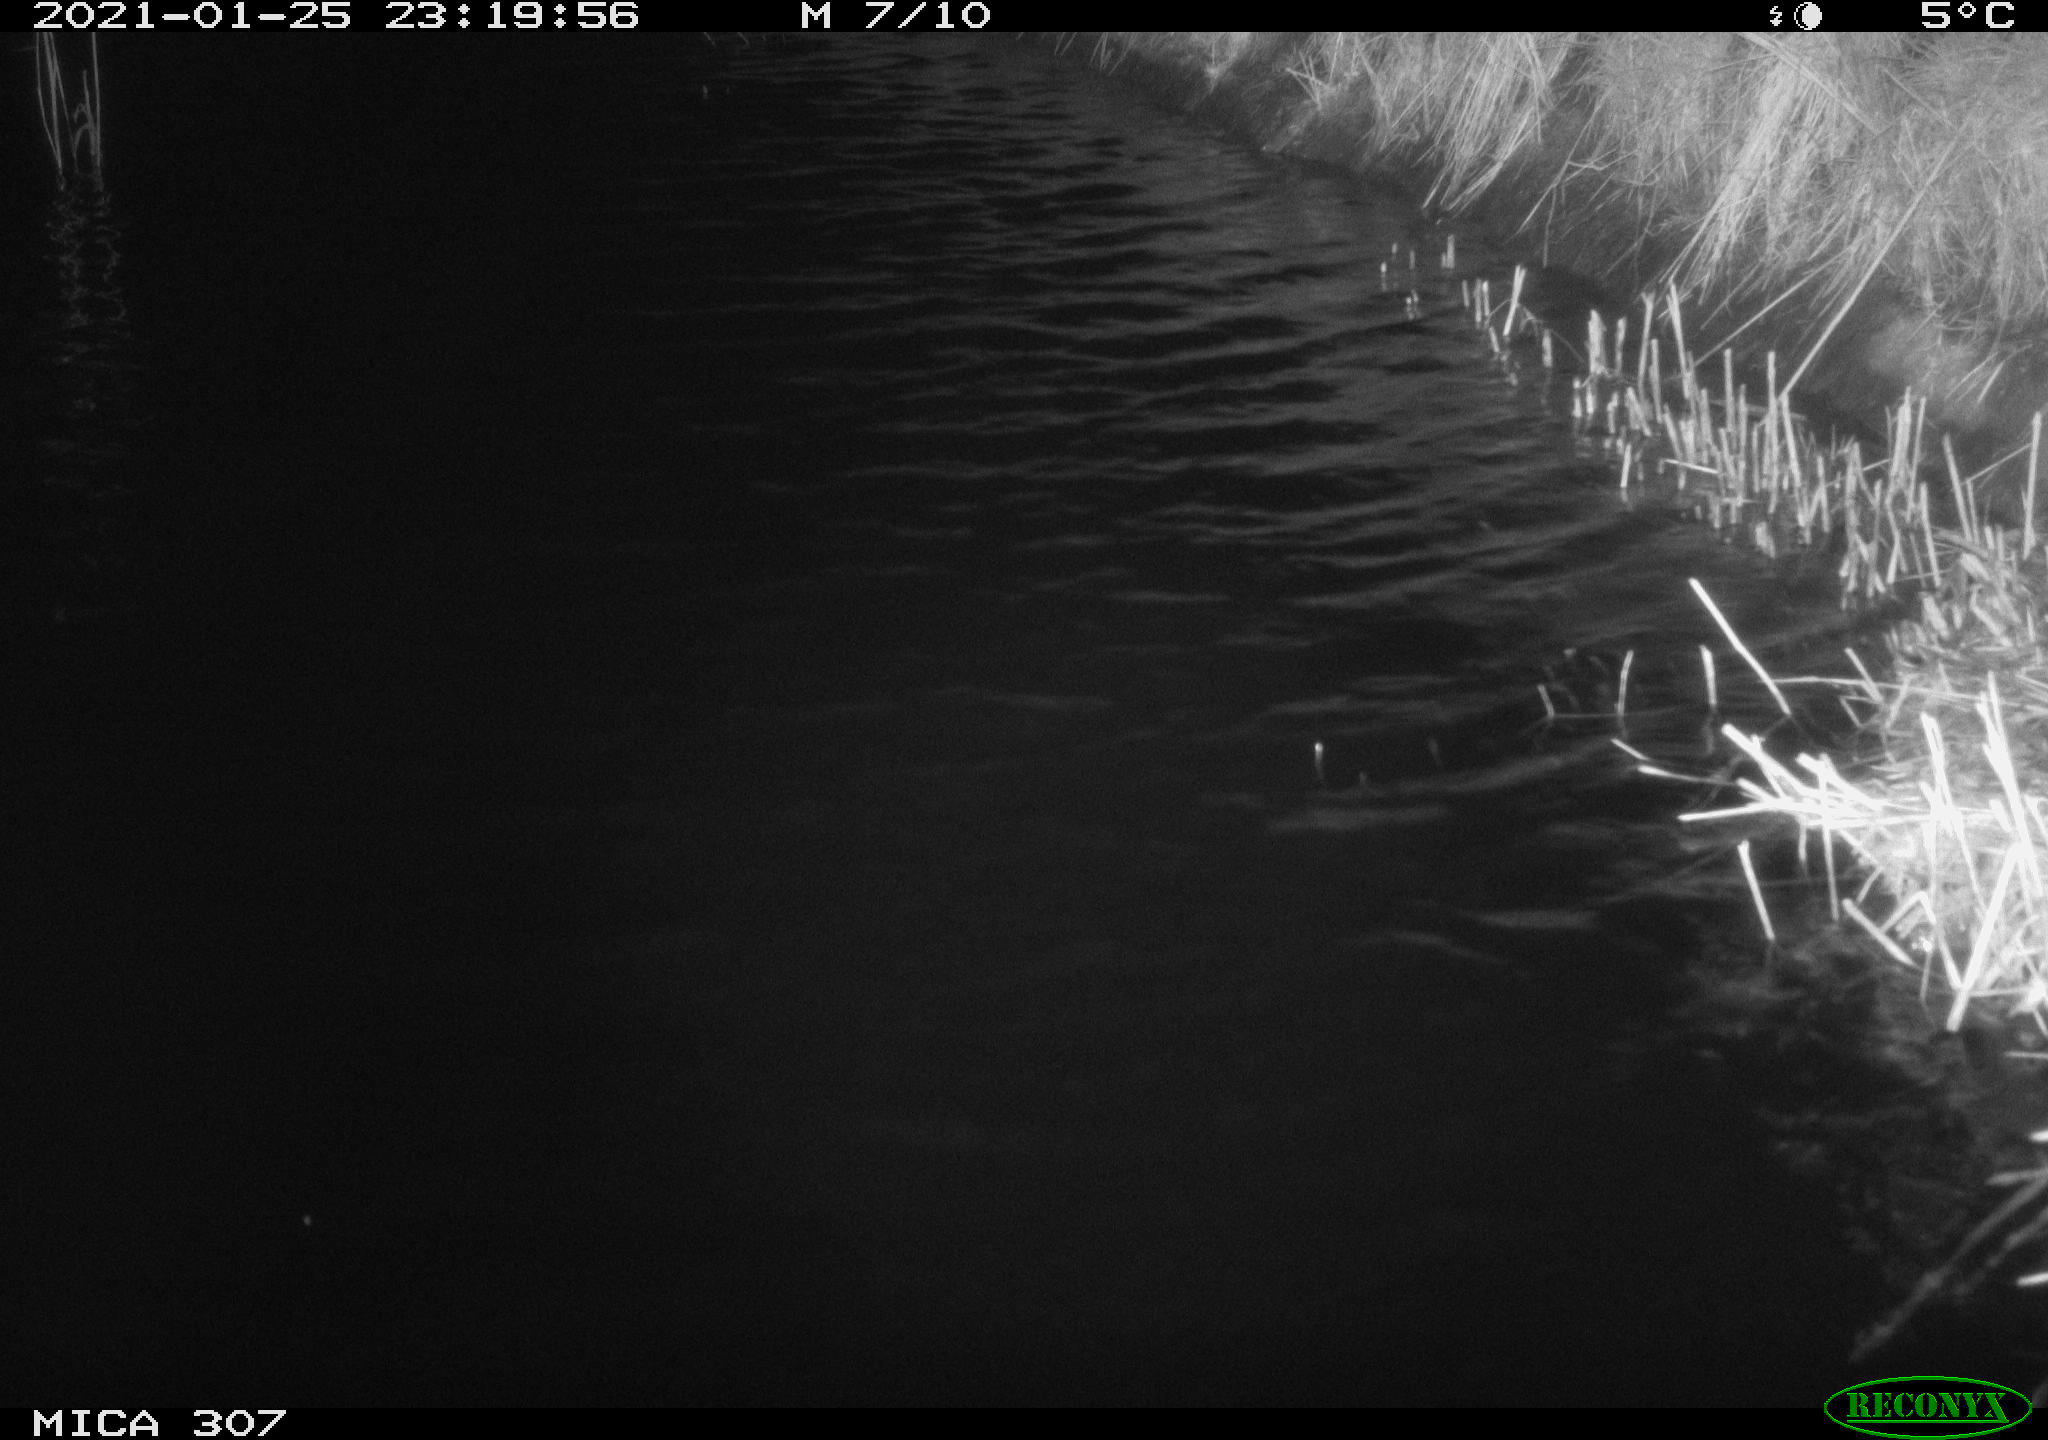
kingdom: Animalia
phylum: Chordata
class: Mammalia
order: Rodentia
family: Muridae
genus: Rattus
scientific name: Rattus norvegicus
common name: Brown rat
